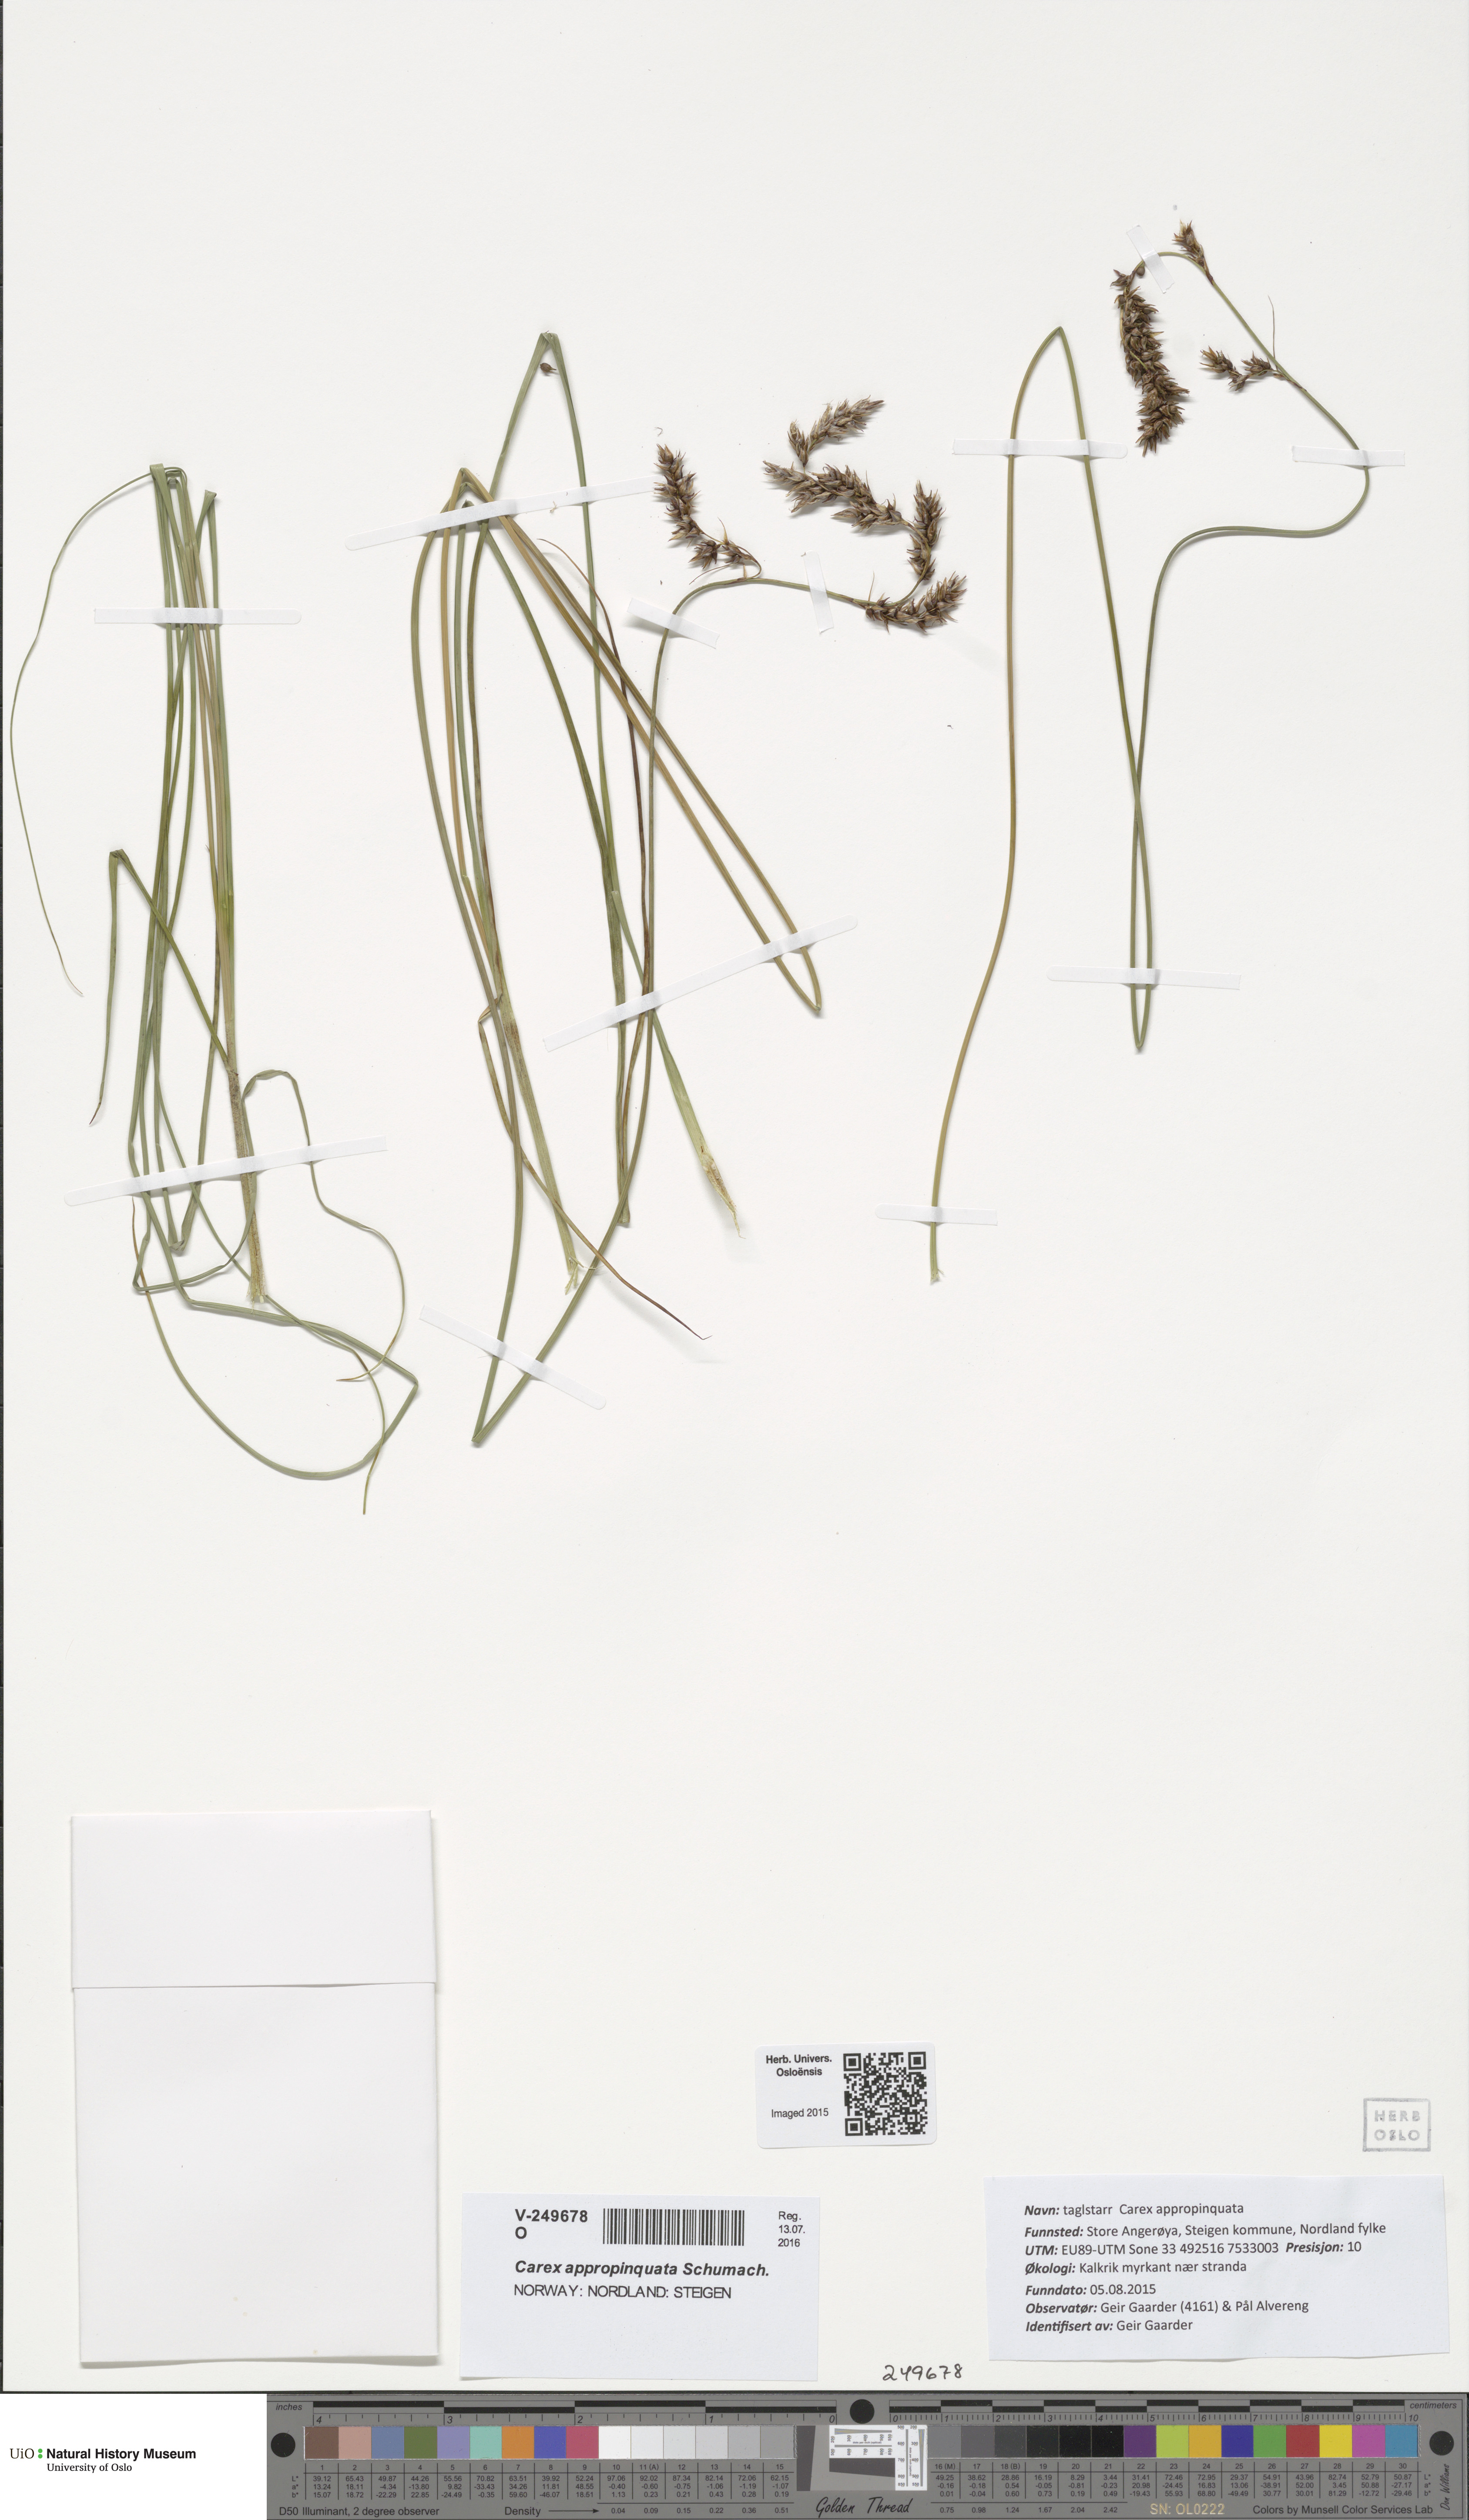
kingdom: Plantae
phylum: Tracheophyta
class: Liliopsida
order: Poales
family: Cyperaceae
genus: Carex
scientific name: Carex appropinquata
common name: Fibrous tussock-sedge
